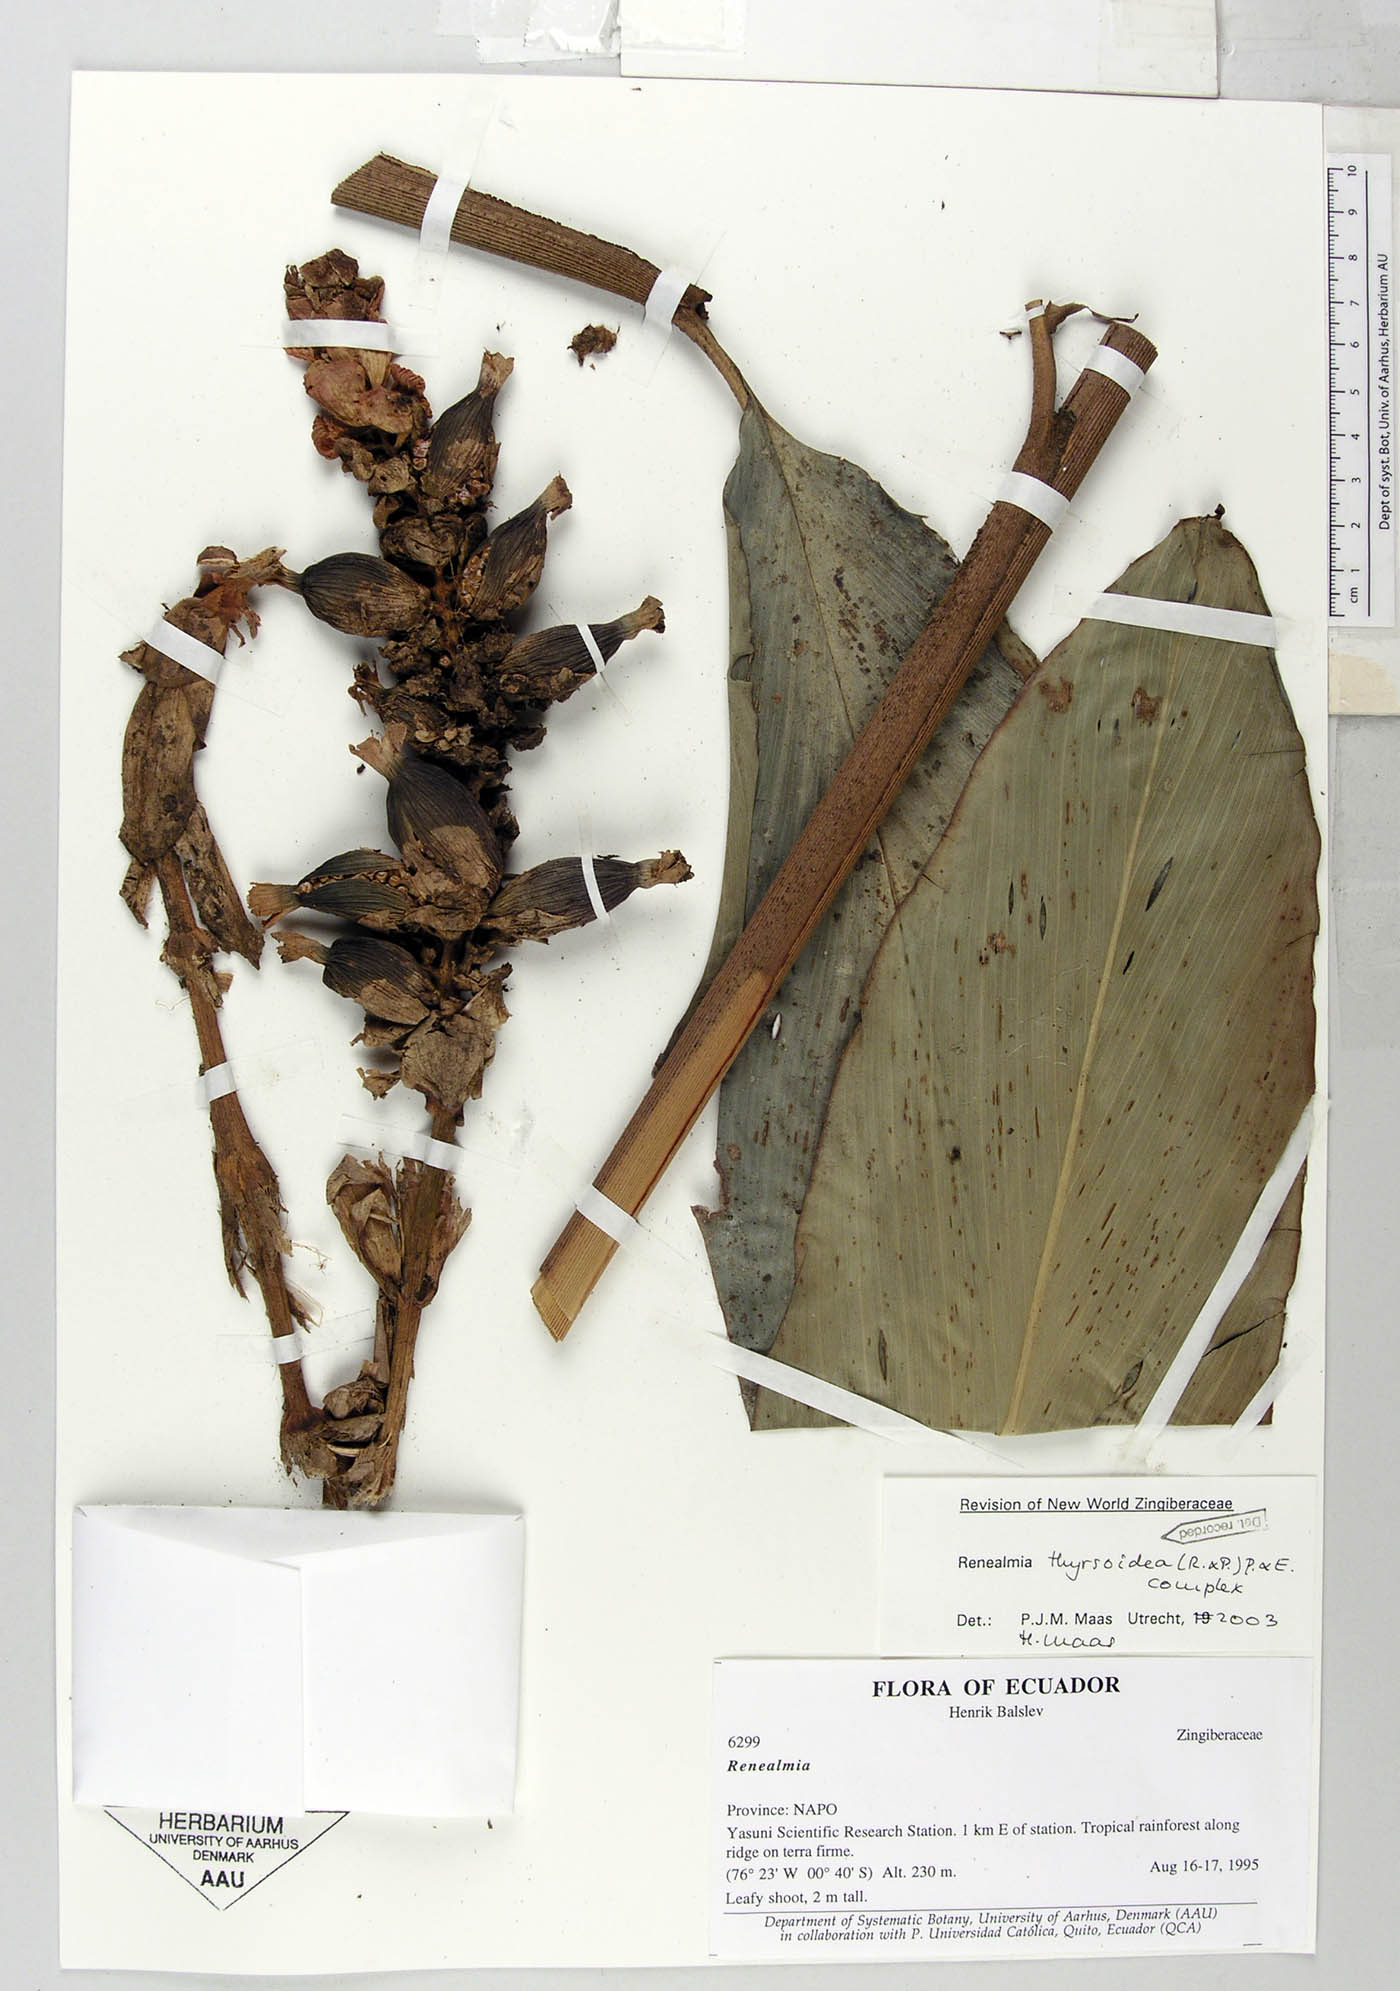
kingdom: Plantae
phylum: Tracheophyta
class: Liliopsida
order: Zingiberales
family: Zingiberaceae
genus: Renealmia
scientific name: Renealmia thyrsoidea
